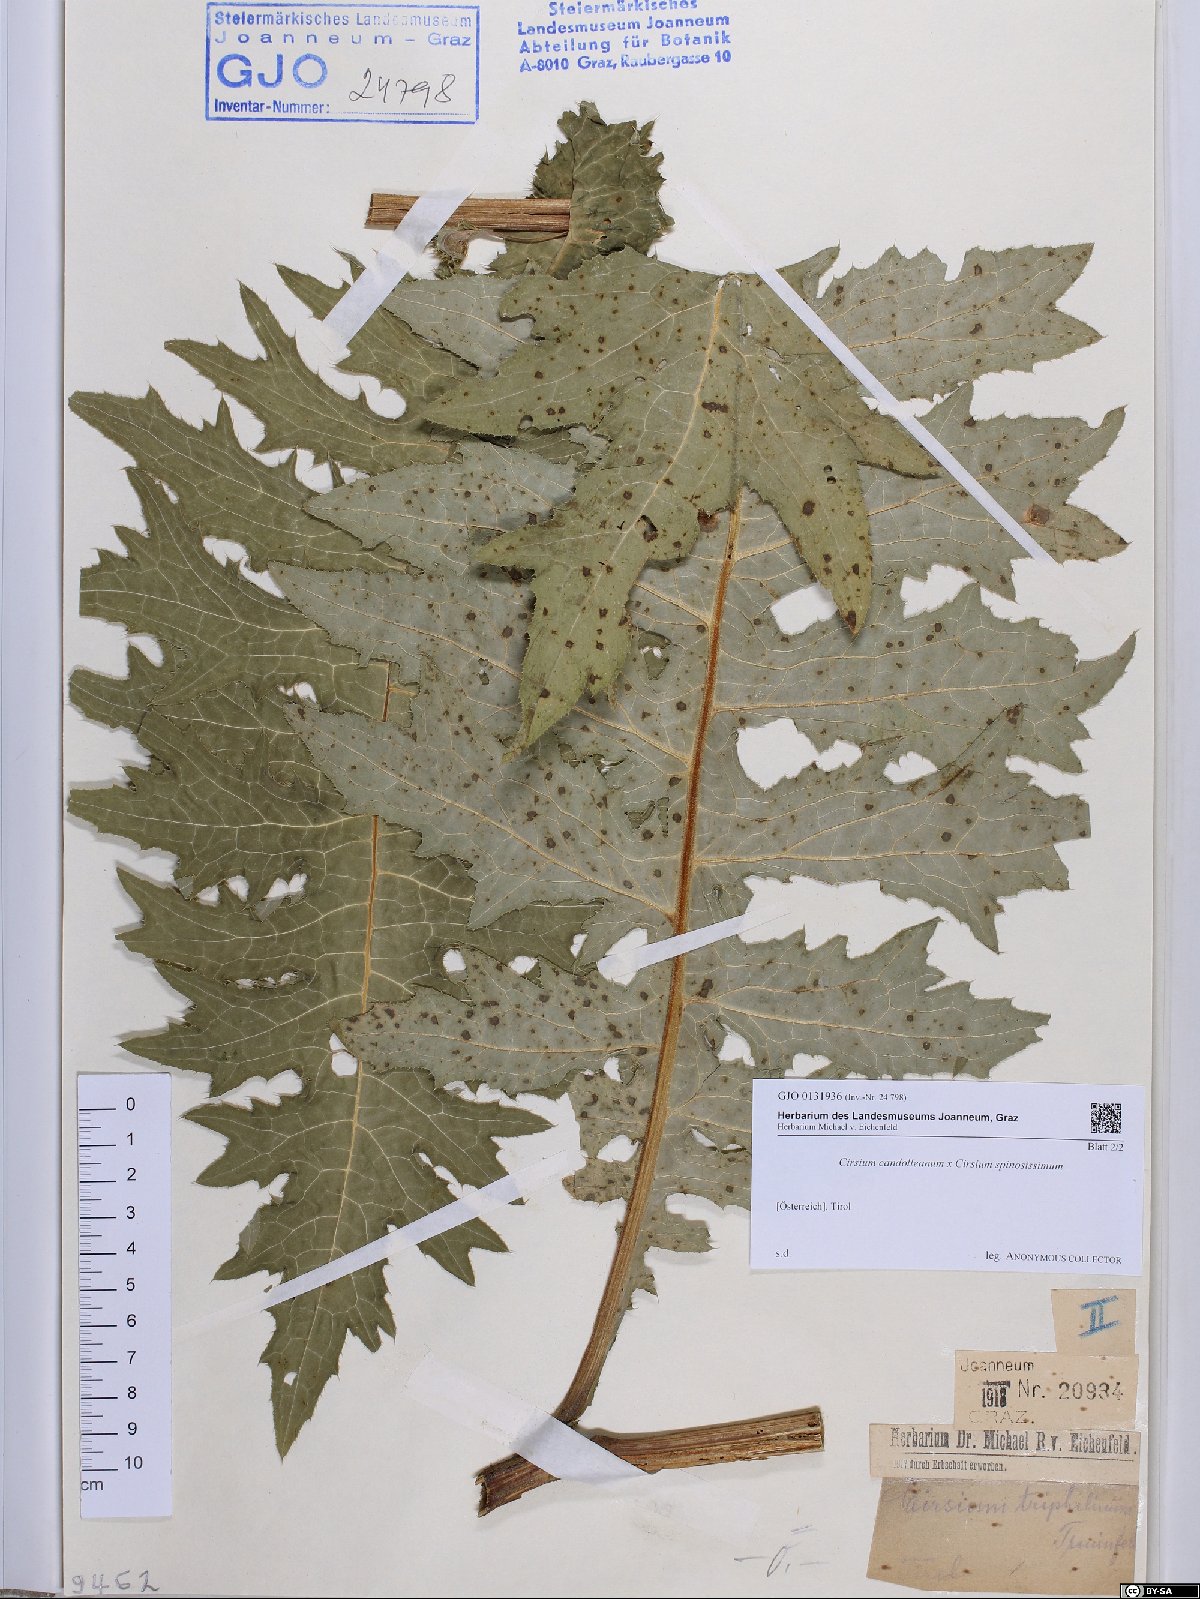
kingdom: Plantae
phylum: Tracheophyta
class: Magnoliopsida
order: Asterales
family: Asteraceae
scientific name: Asteraceae
